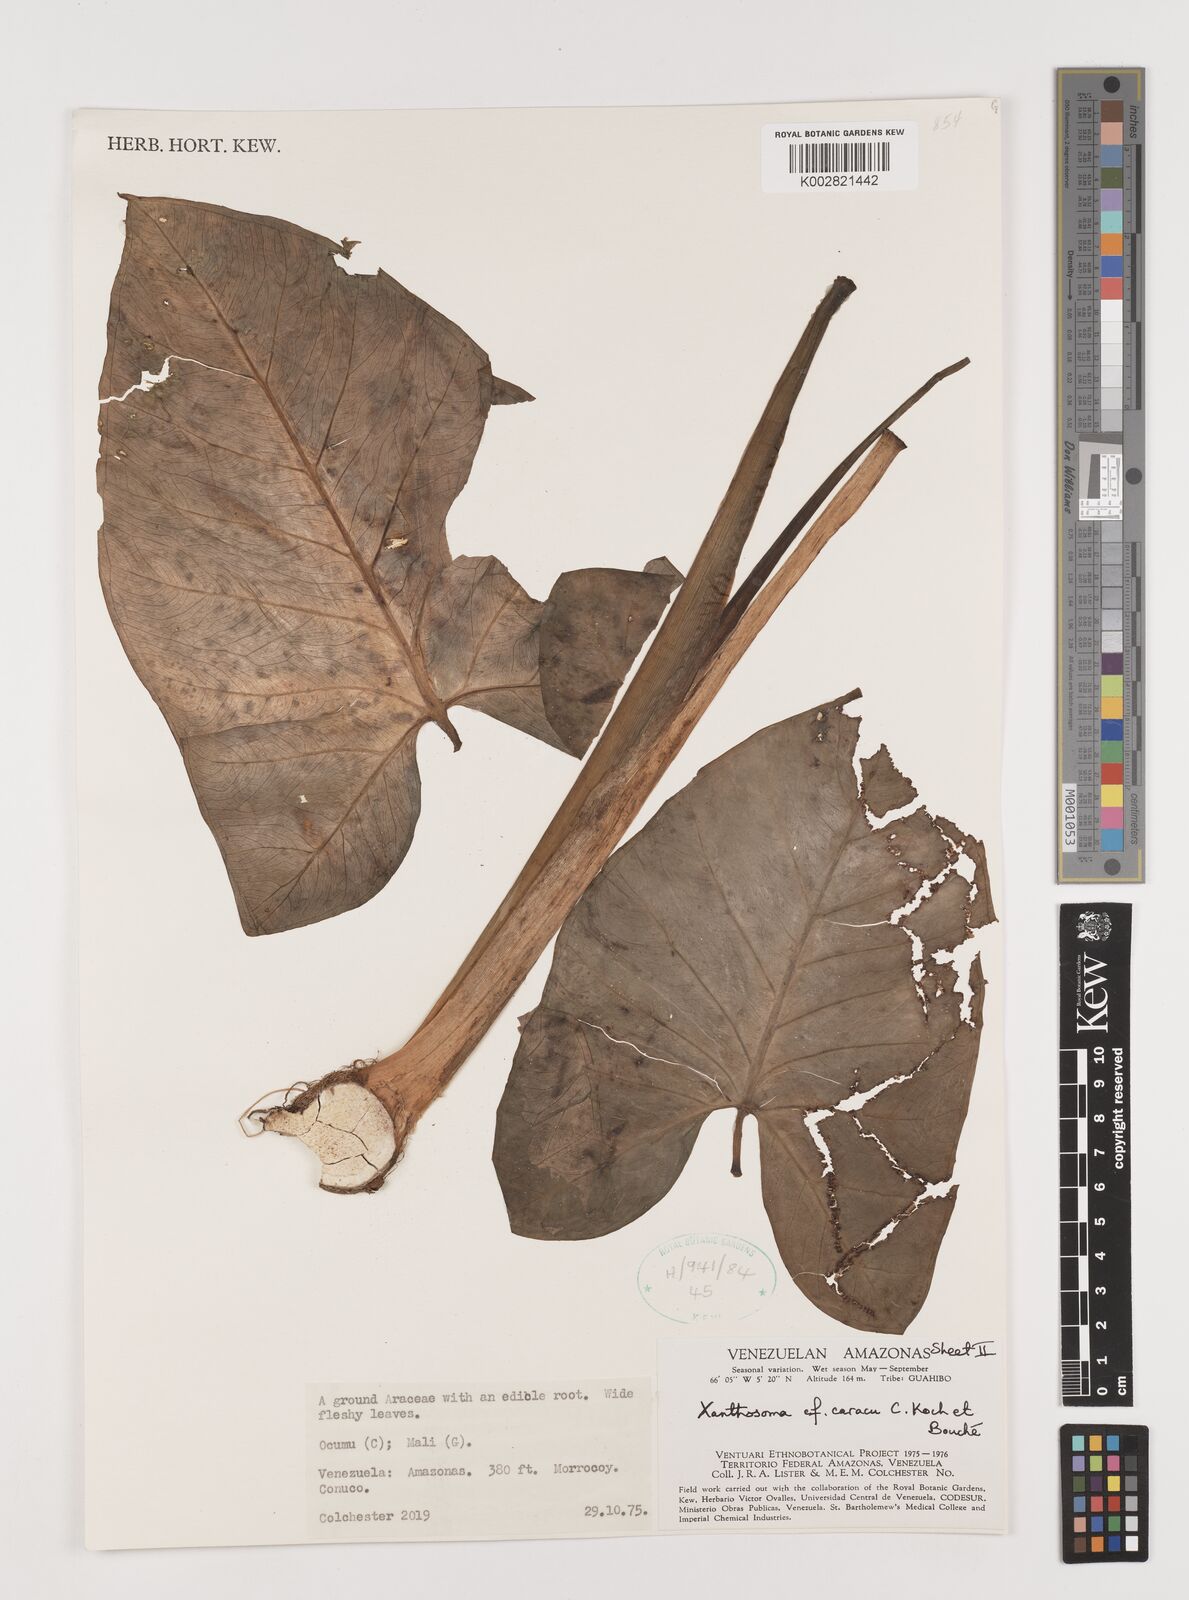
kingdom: Plantae
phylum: Tracheophyta
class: Liliopsida
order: Alismatales
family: Araceae
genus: Xanthosoma
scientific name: Xanthosoma caracu
